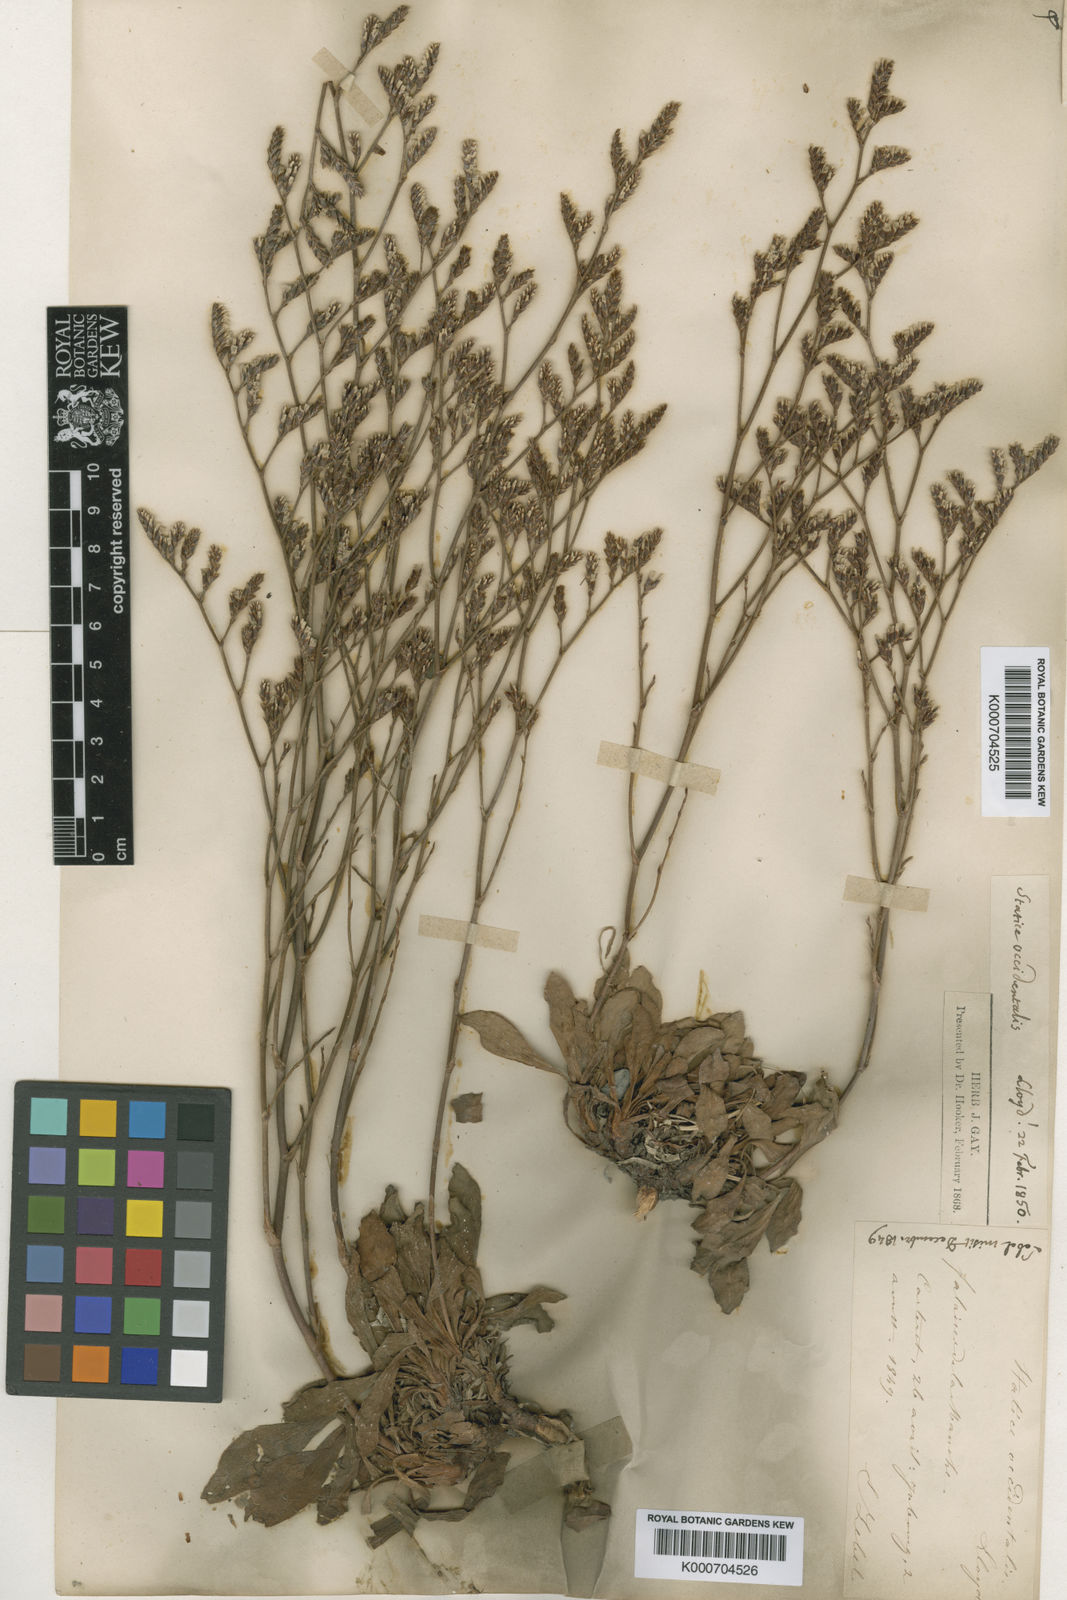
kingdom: Plantae
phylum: Tracheophyta
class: Magnoliopsida
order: Caryophyllales
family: Plumbaginaceae
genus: Limonium
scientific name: Limonium virgatum
